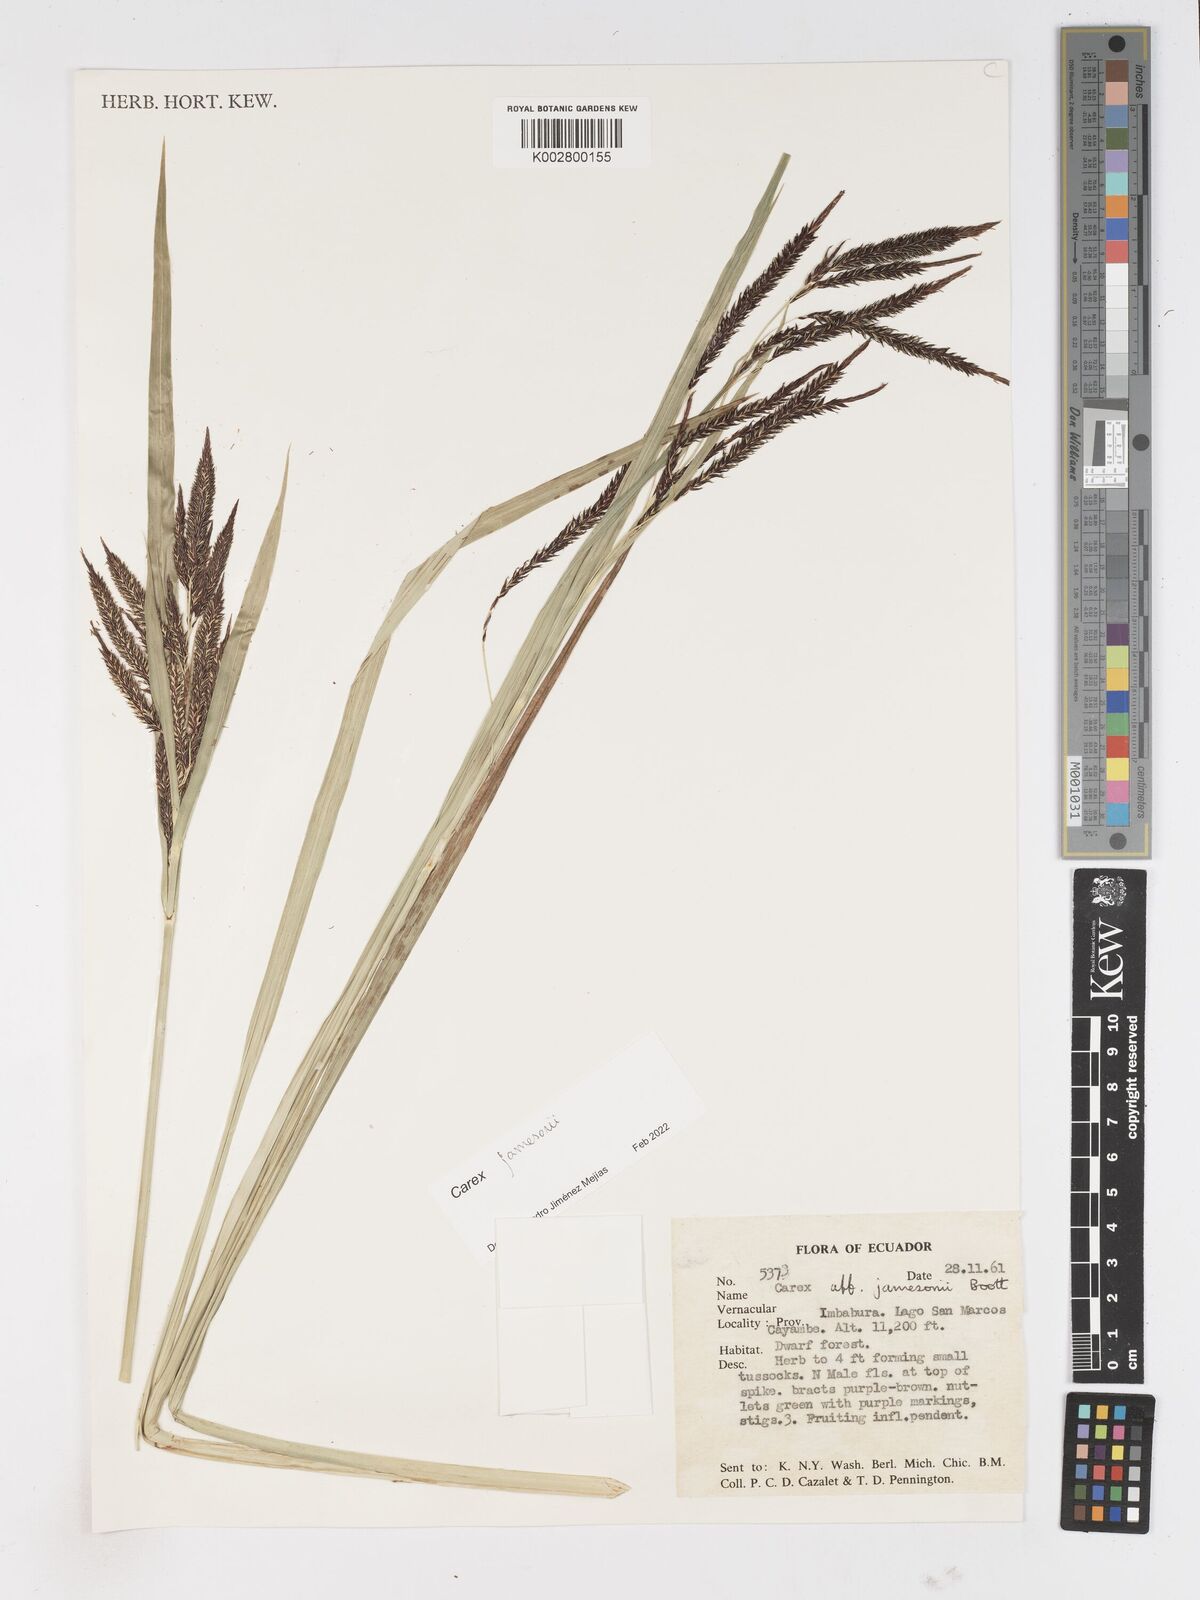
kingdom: Plantae
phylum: Tracheophyta
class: Liliopsida
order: Poales
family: Cyperaceae
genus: Carex
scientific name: Carex jamesonii
